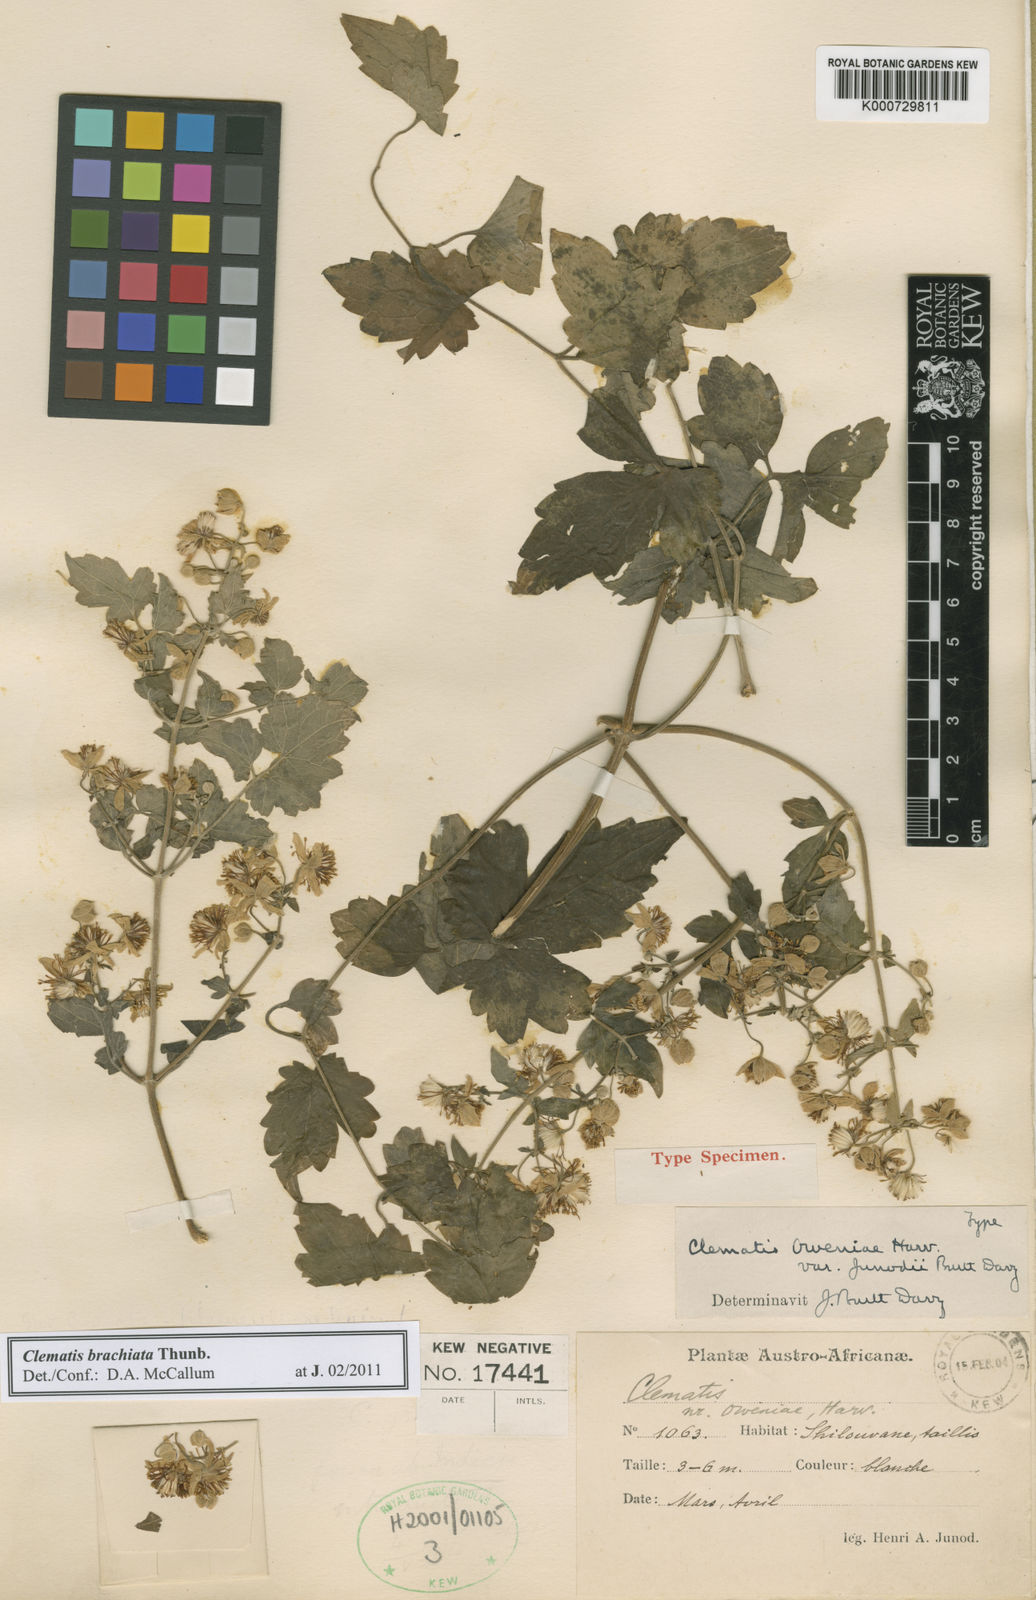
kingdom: Plantae
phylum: Tracheophyta
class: Magnoliopsida
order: Ranunculales
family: Ranunculaceae
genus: Clematis
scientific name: Clematis oweniae
